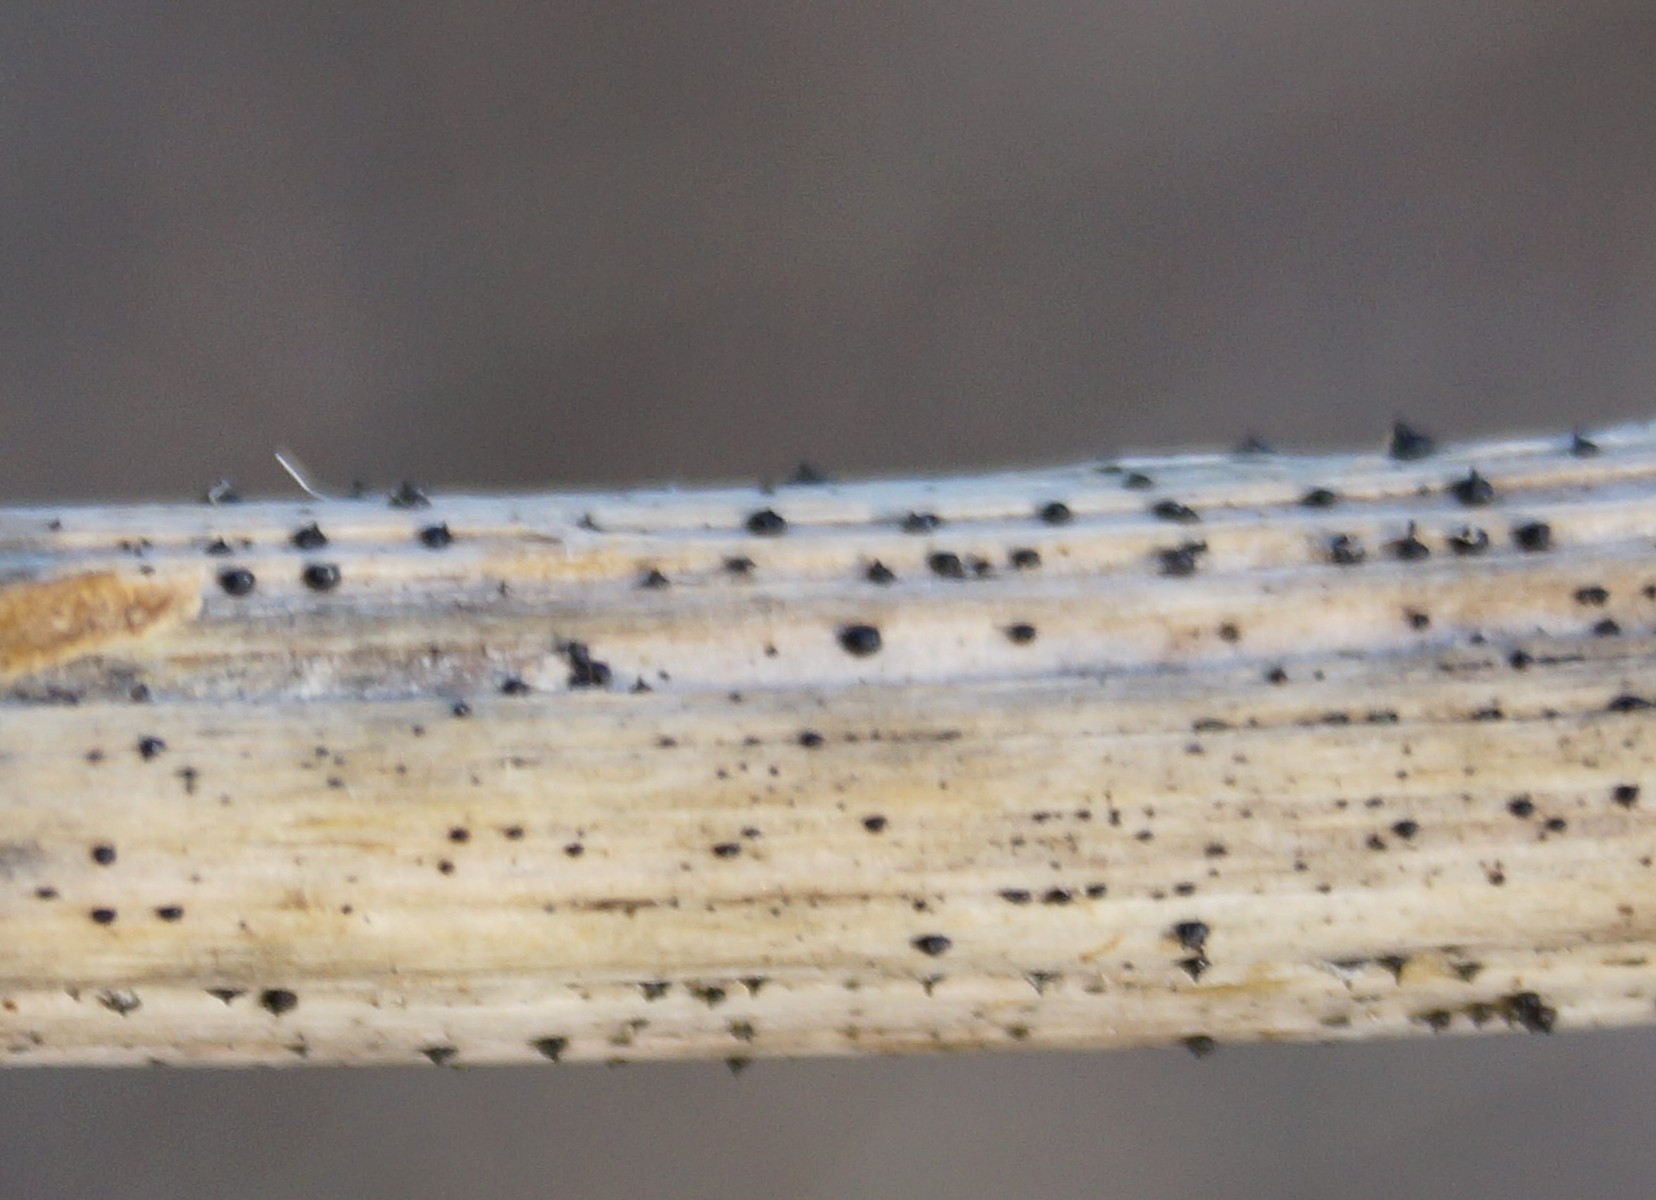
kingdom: Fungi
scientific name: Fungi
